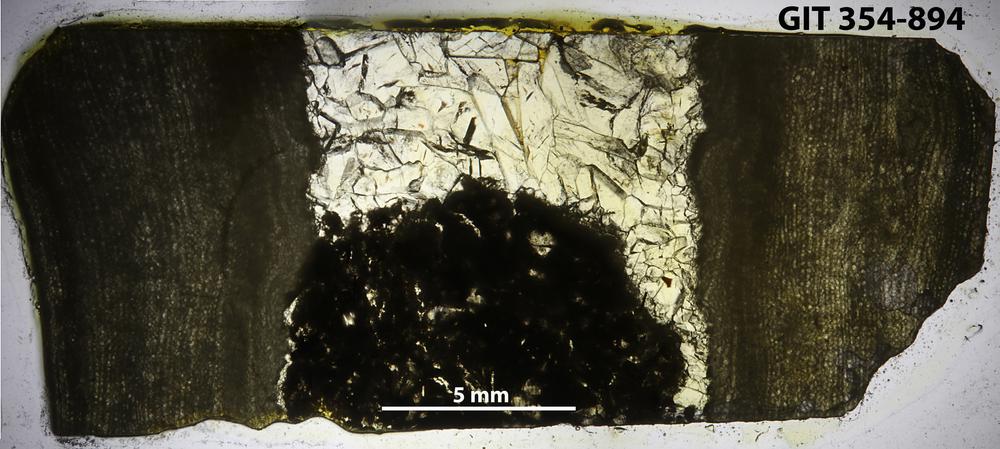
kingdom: Animalia
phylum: Porifera
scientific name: Porifera
